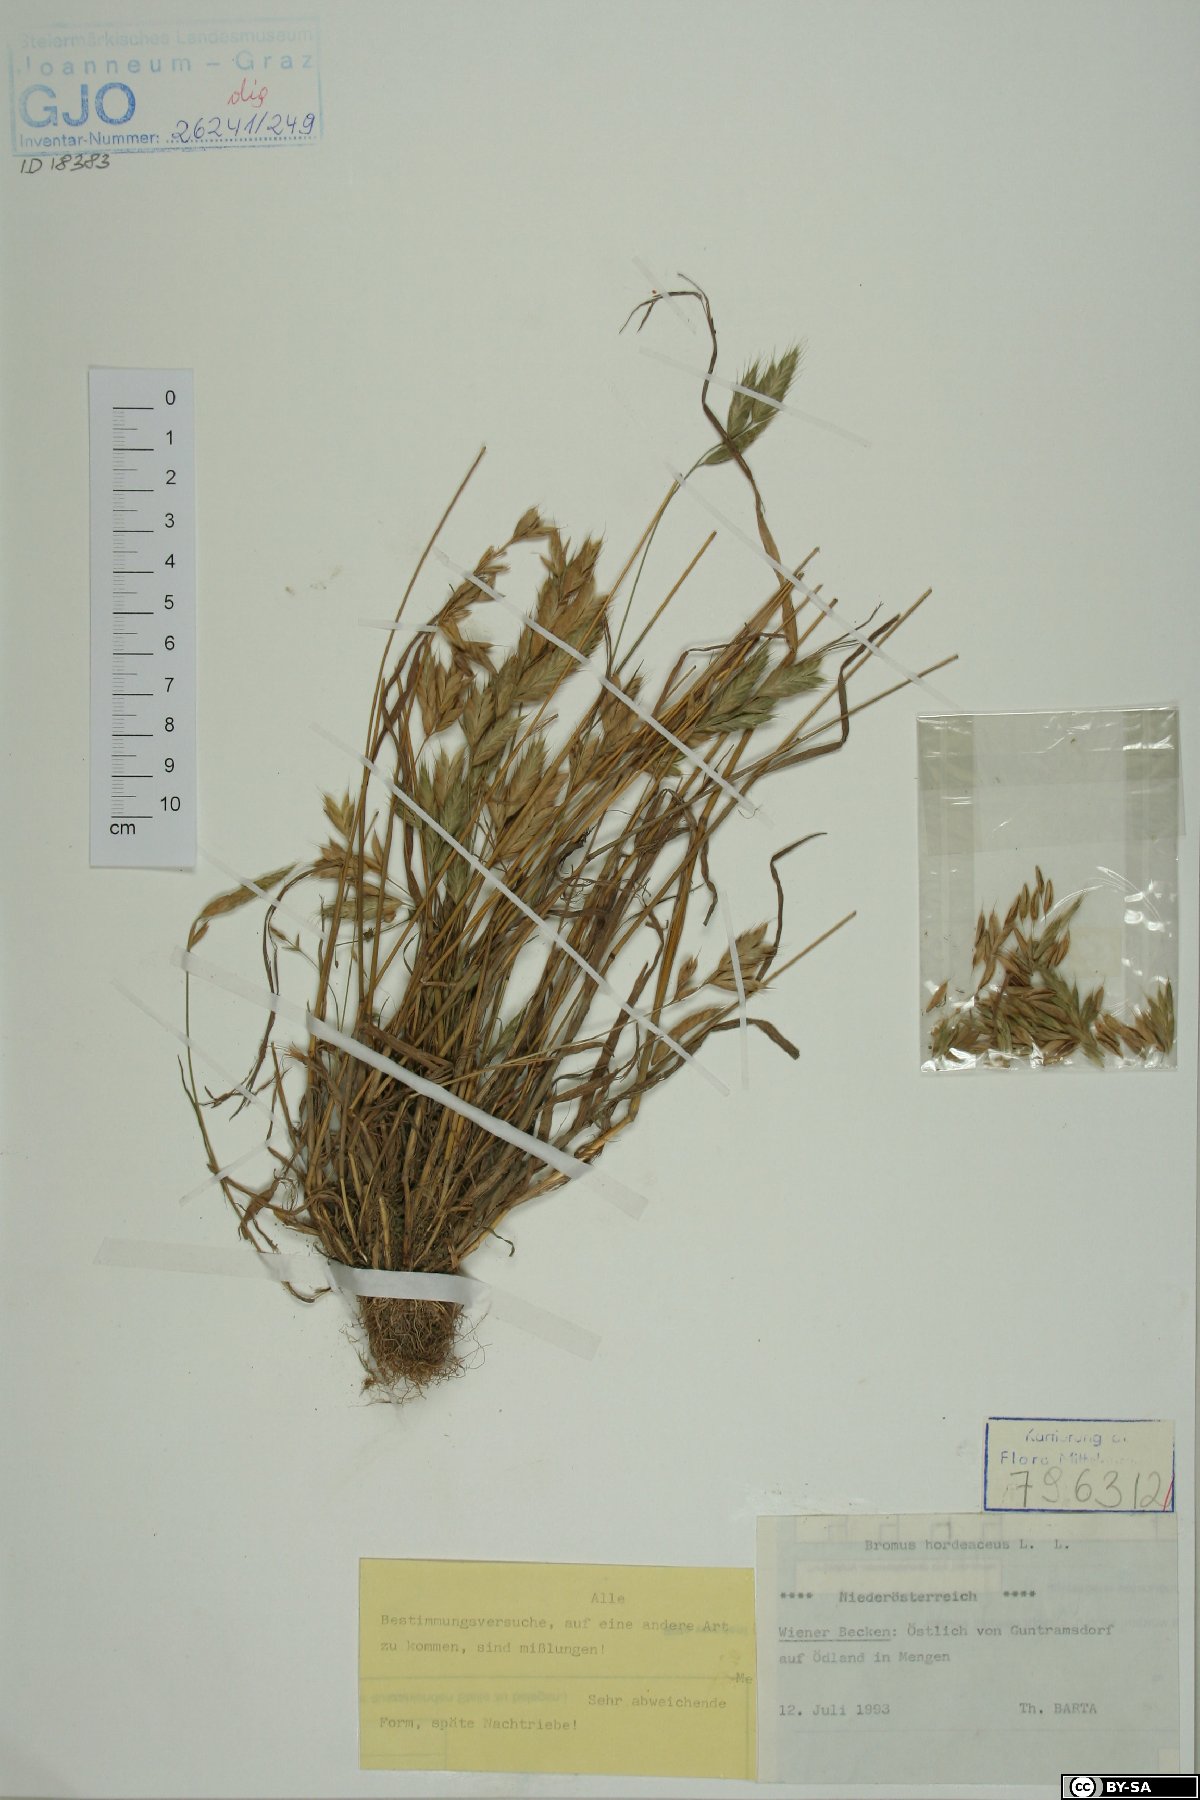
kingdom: Plantae
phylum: Tracheophyta
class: Liliopsida
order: Poales
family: Poaceae
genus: Bromus
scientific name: Bromus hordeaceus
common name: Soft brome
